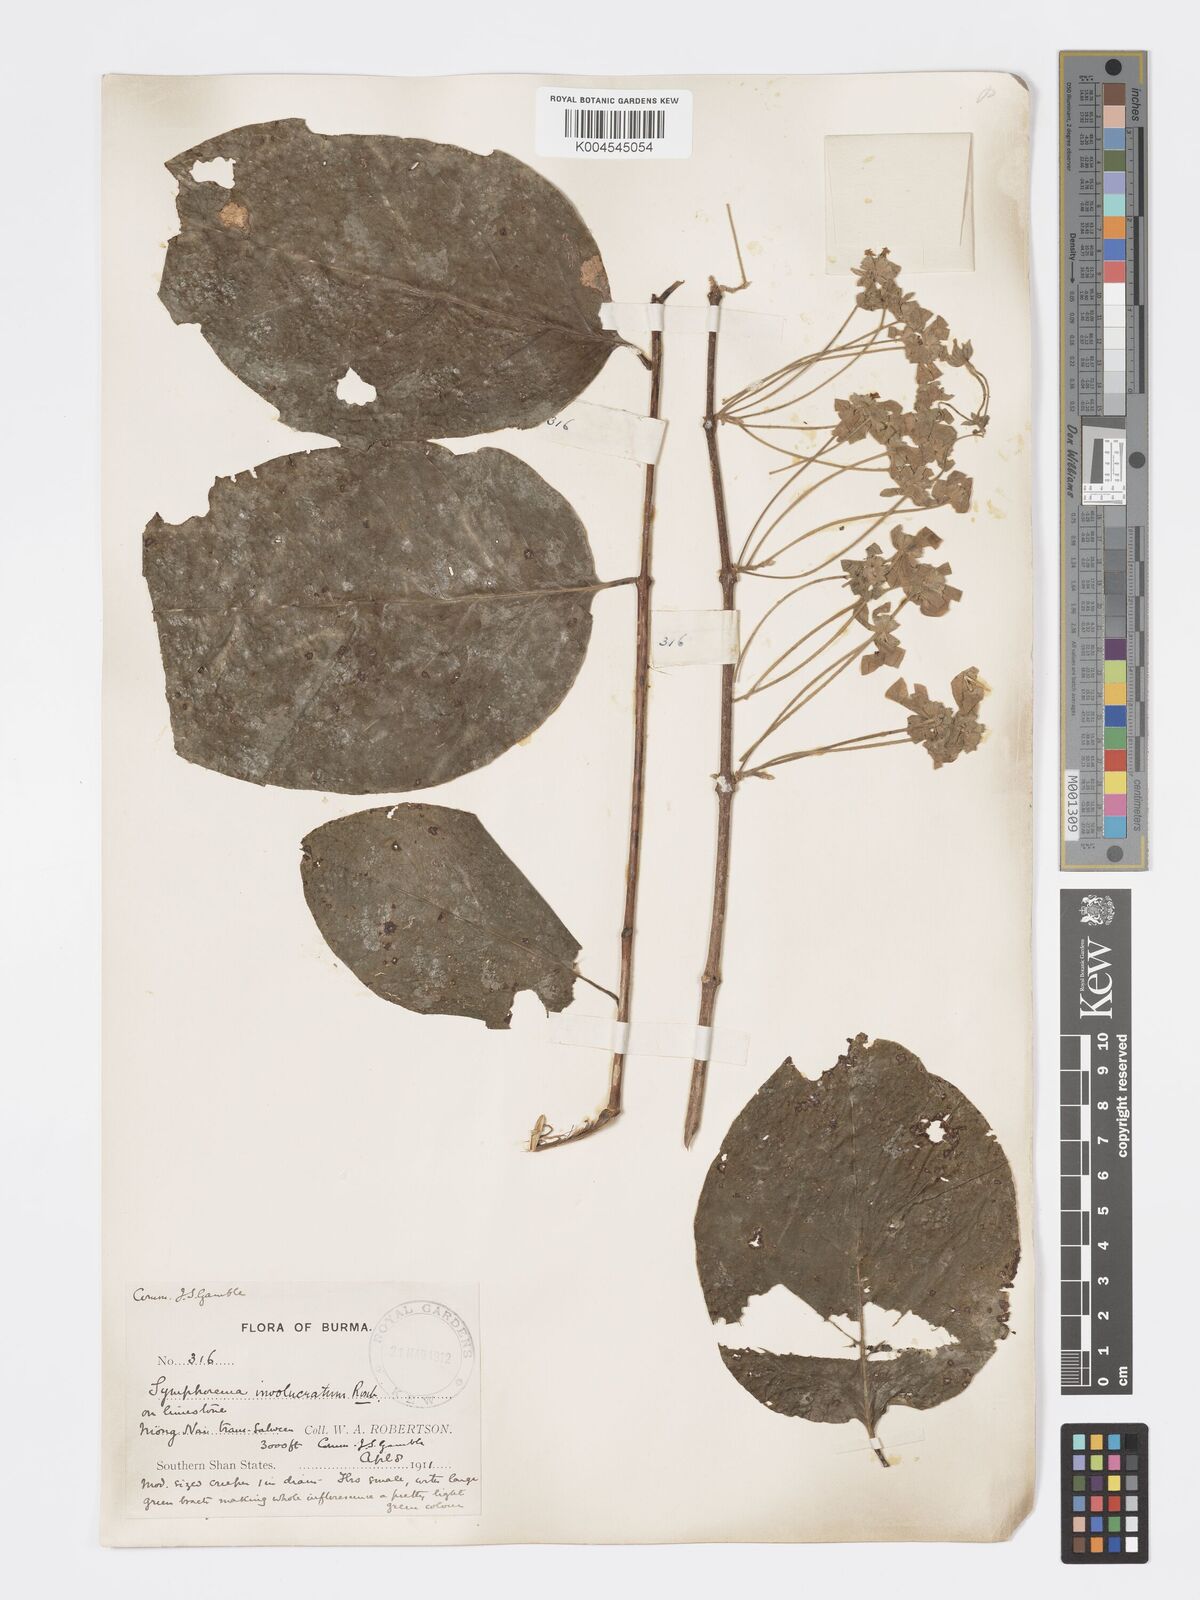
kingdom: Plantae
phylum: Tracheophyta
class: Magnoliopsida
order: Lamiales
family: Lamiaceae
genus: Symphorema
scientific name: Symphorema involucratum
